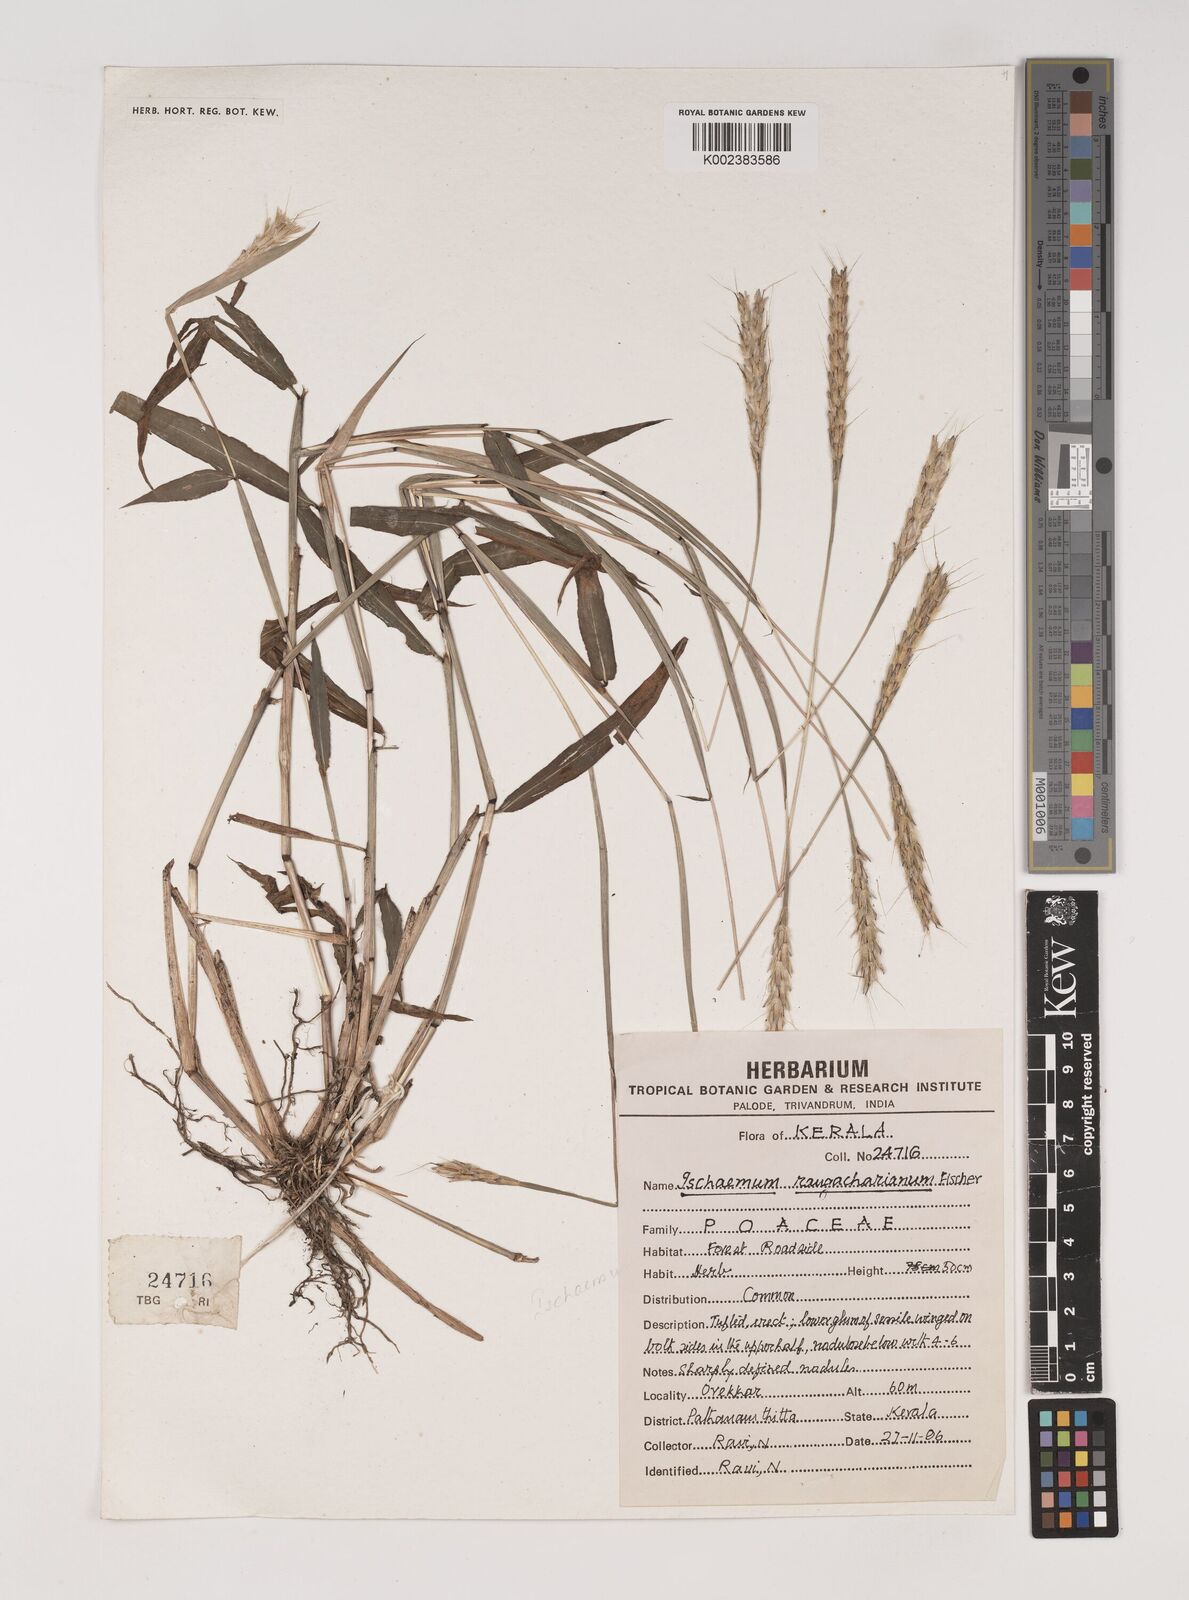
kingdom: Plantae
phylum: Tracheophyta
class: Liliopsida
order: Poales
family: Poaceae
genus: Ischaemum
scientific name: Ischaemum rangacharianum
